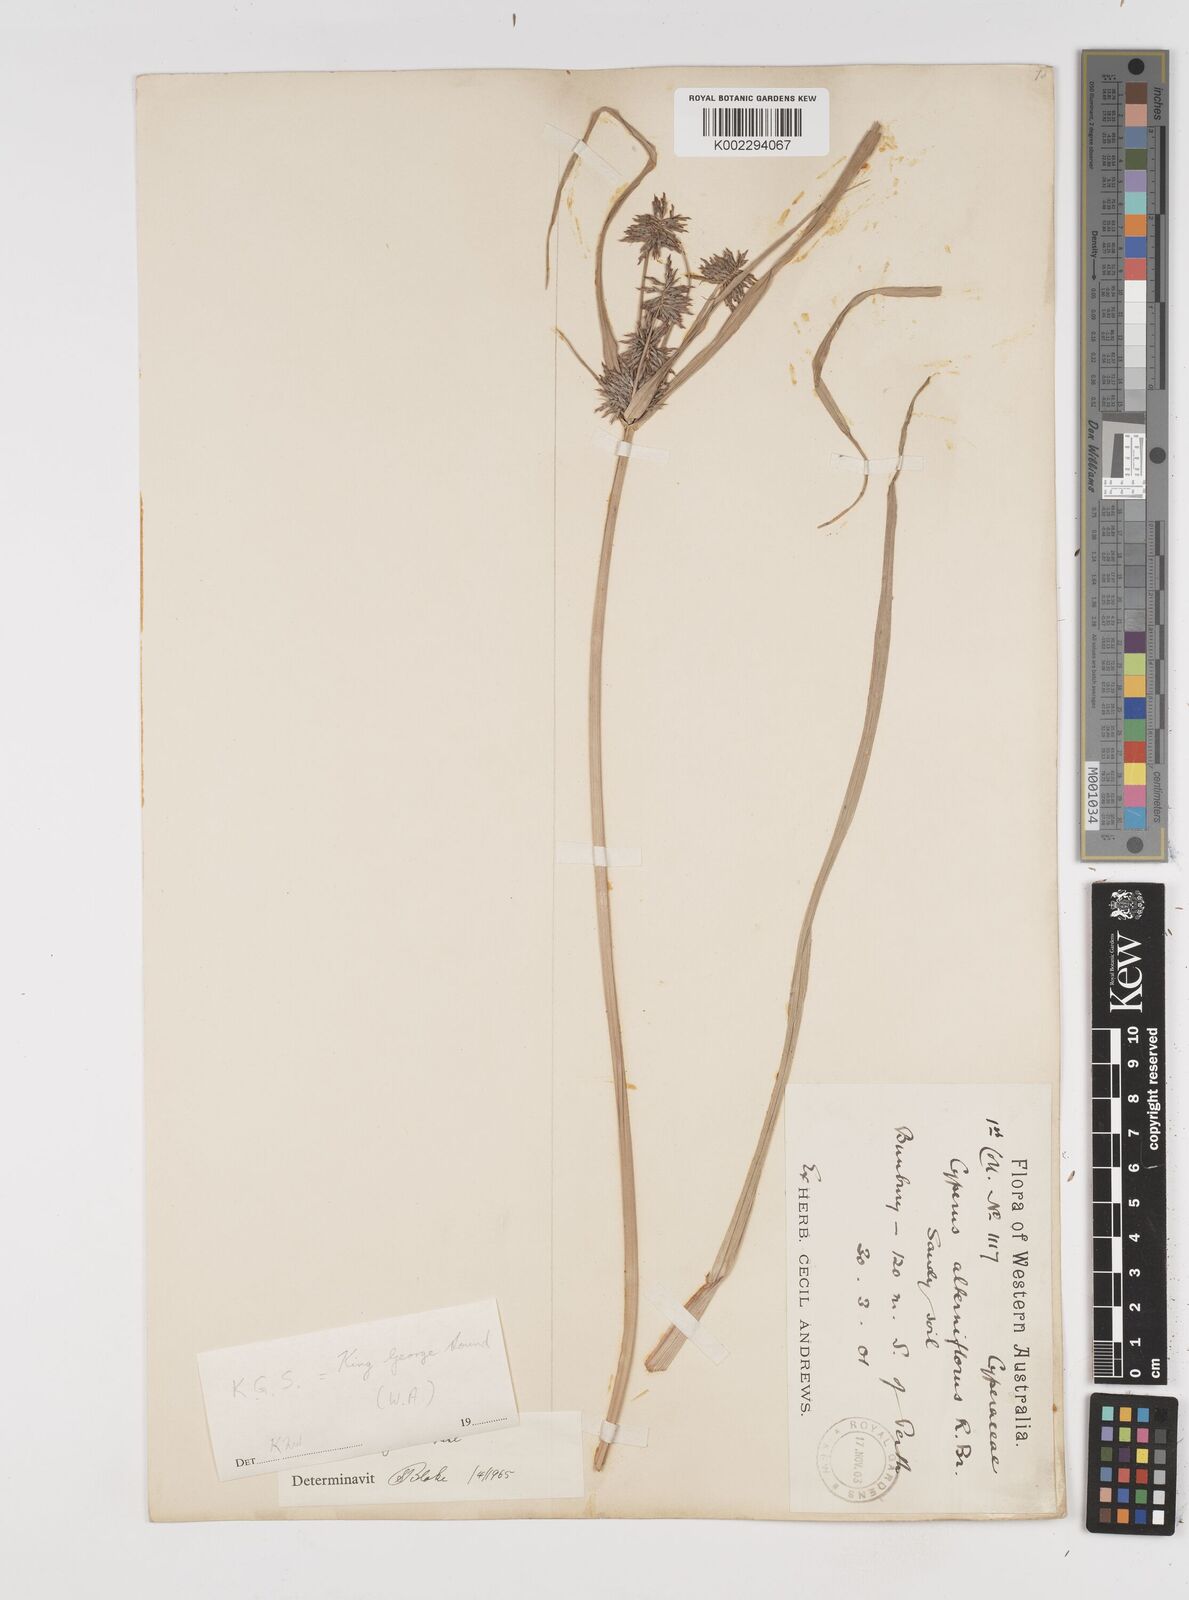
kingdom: Plantae
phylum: Tracheophyta
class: Liliopsida
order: Poales
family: Cyperaceae
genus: Cyperus
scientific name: Cyperus congestus
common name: Dense flat sedge
